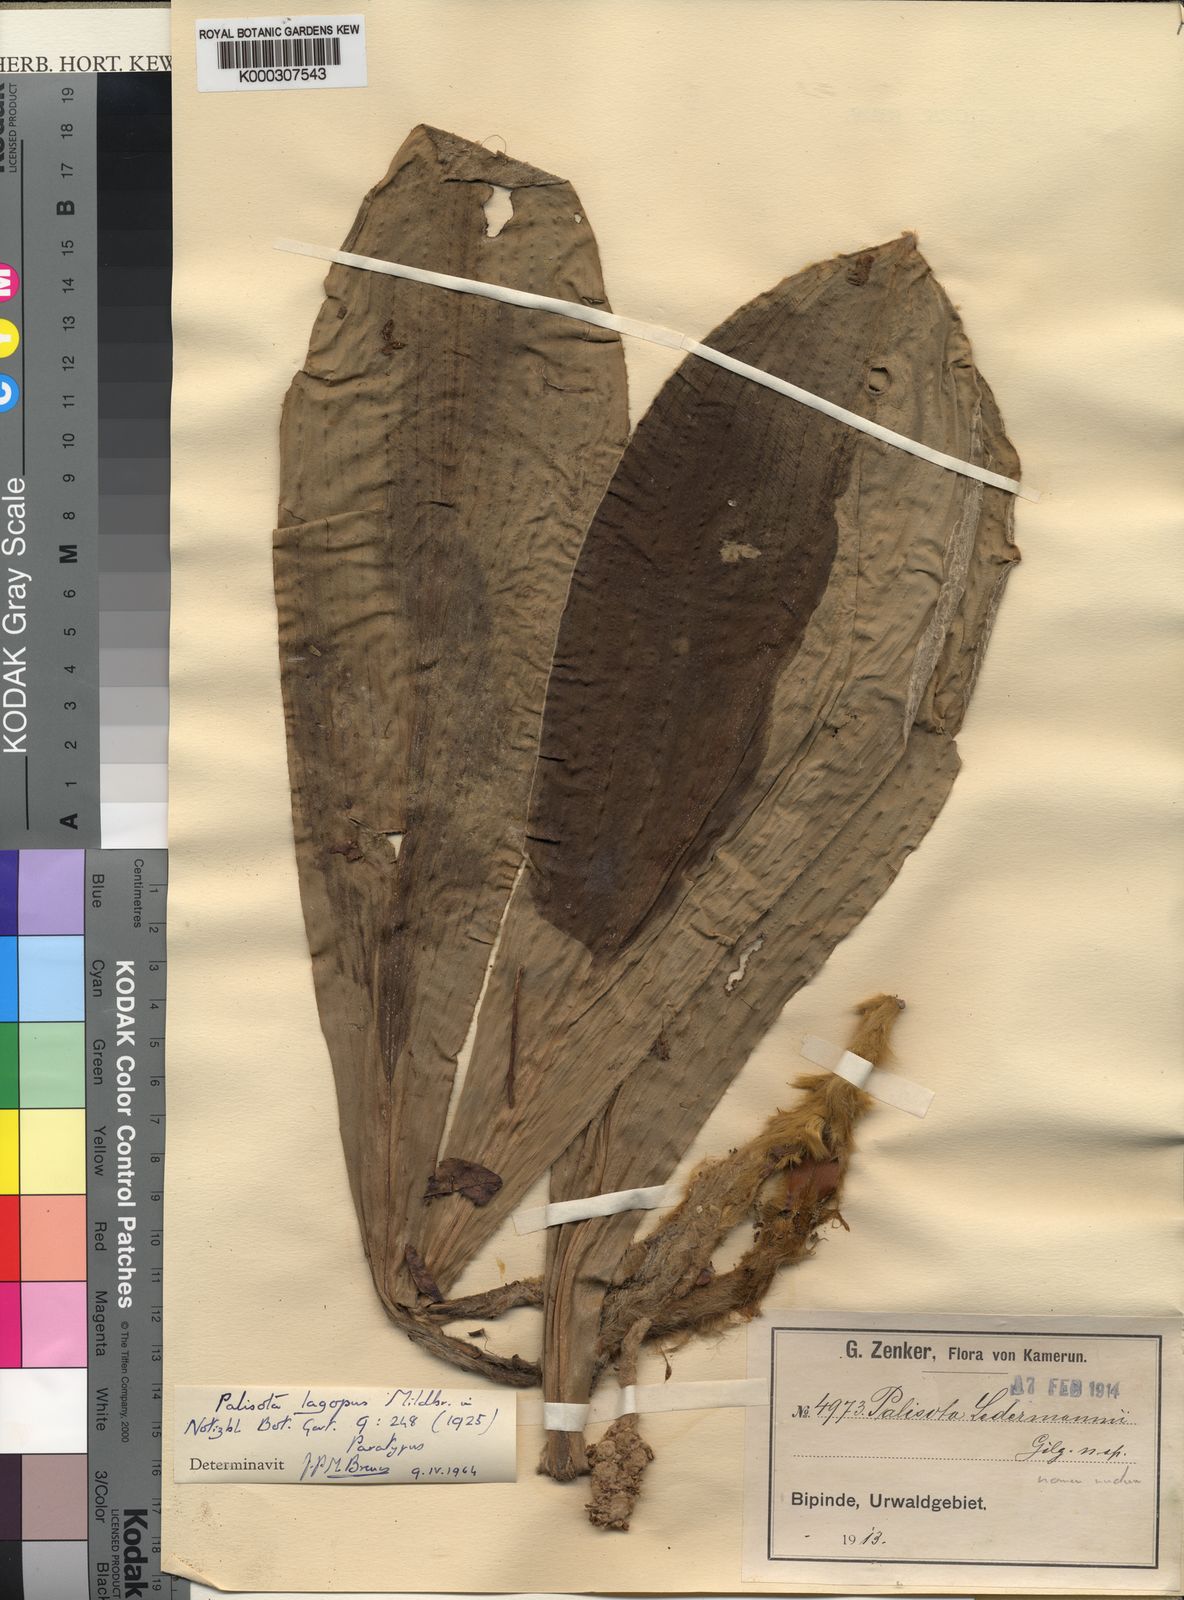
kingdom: Plantae
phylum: Tracheophyta
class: Liliopsida
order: Commelinales
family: Commelinaceae
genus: Palisota
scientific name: Palisota lagopus
